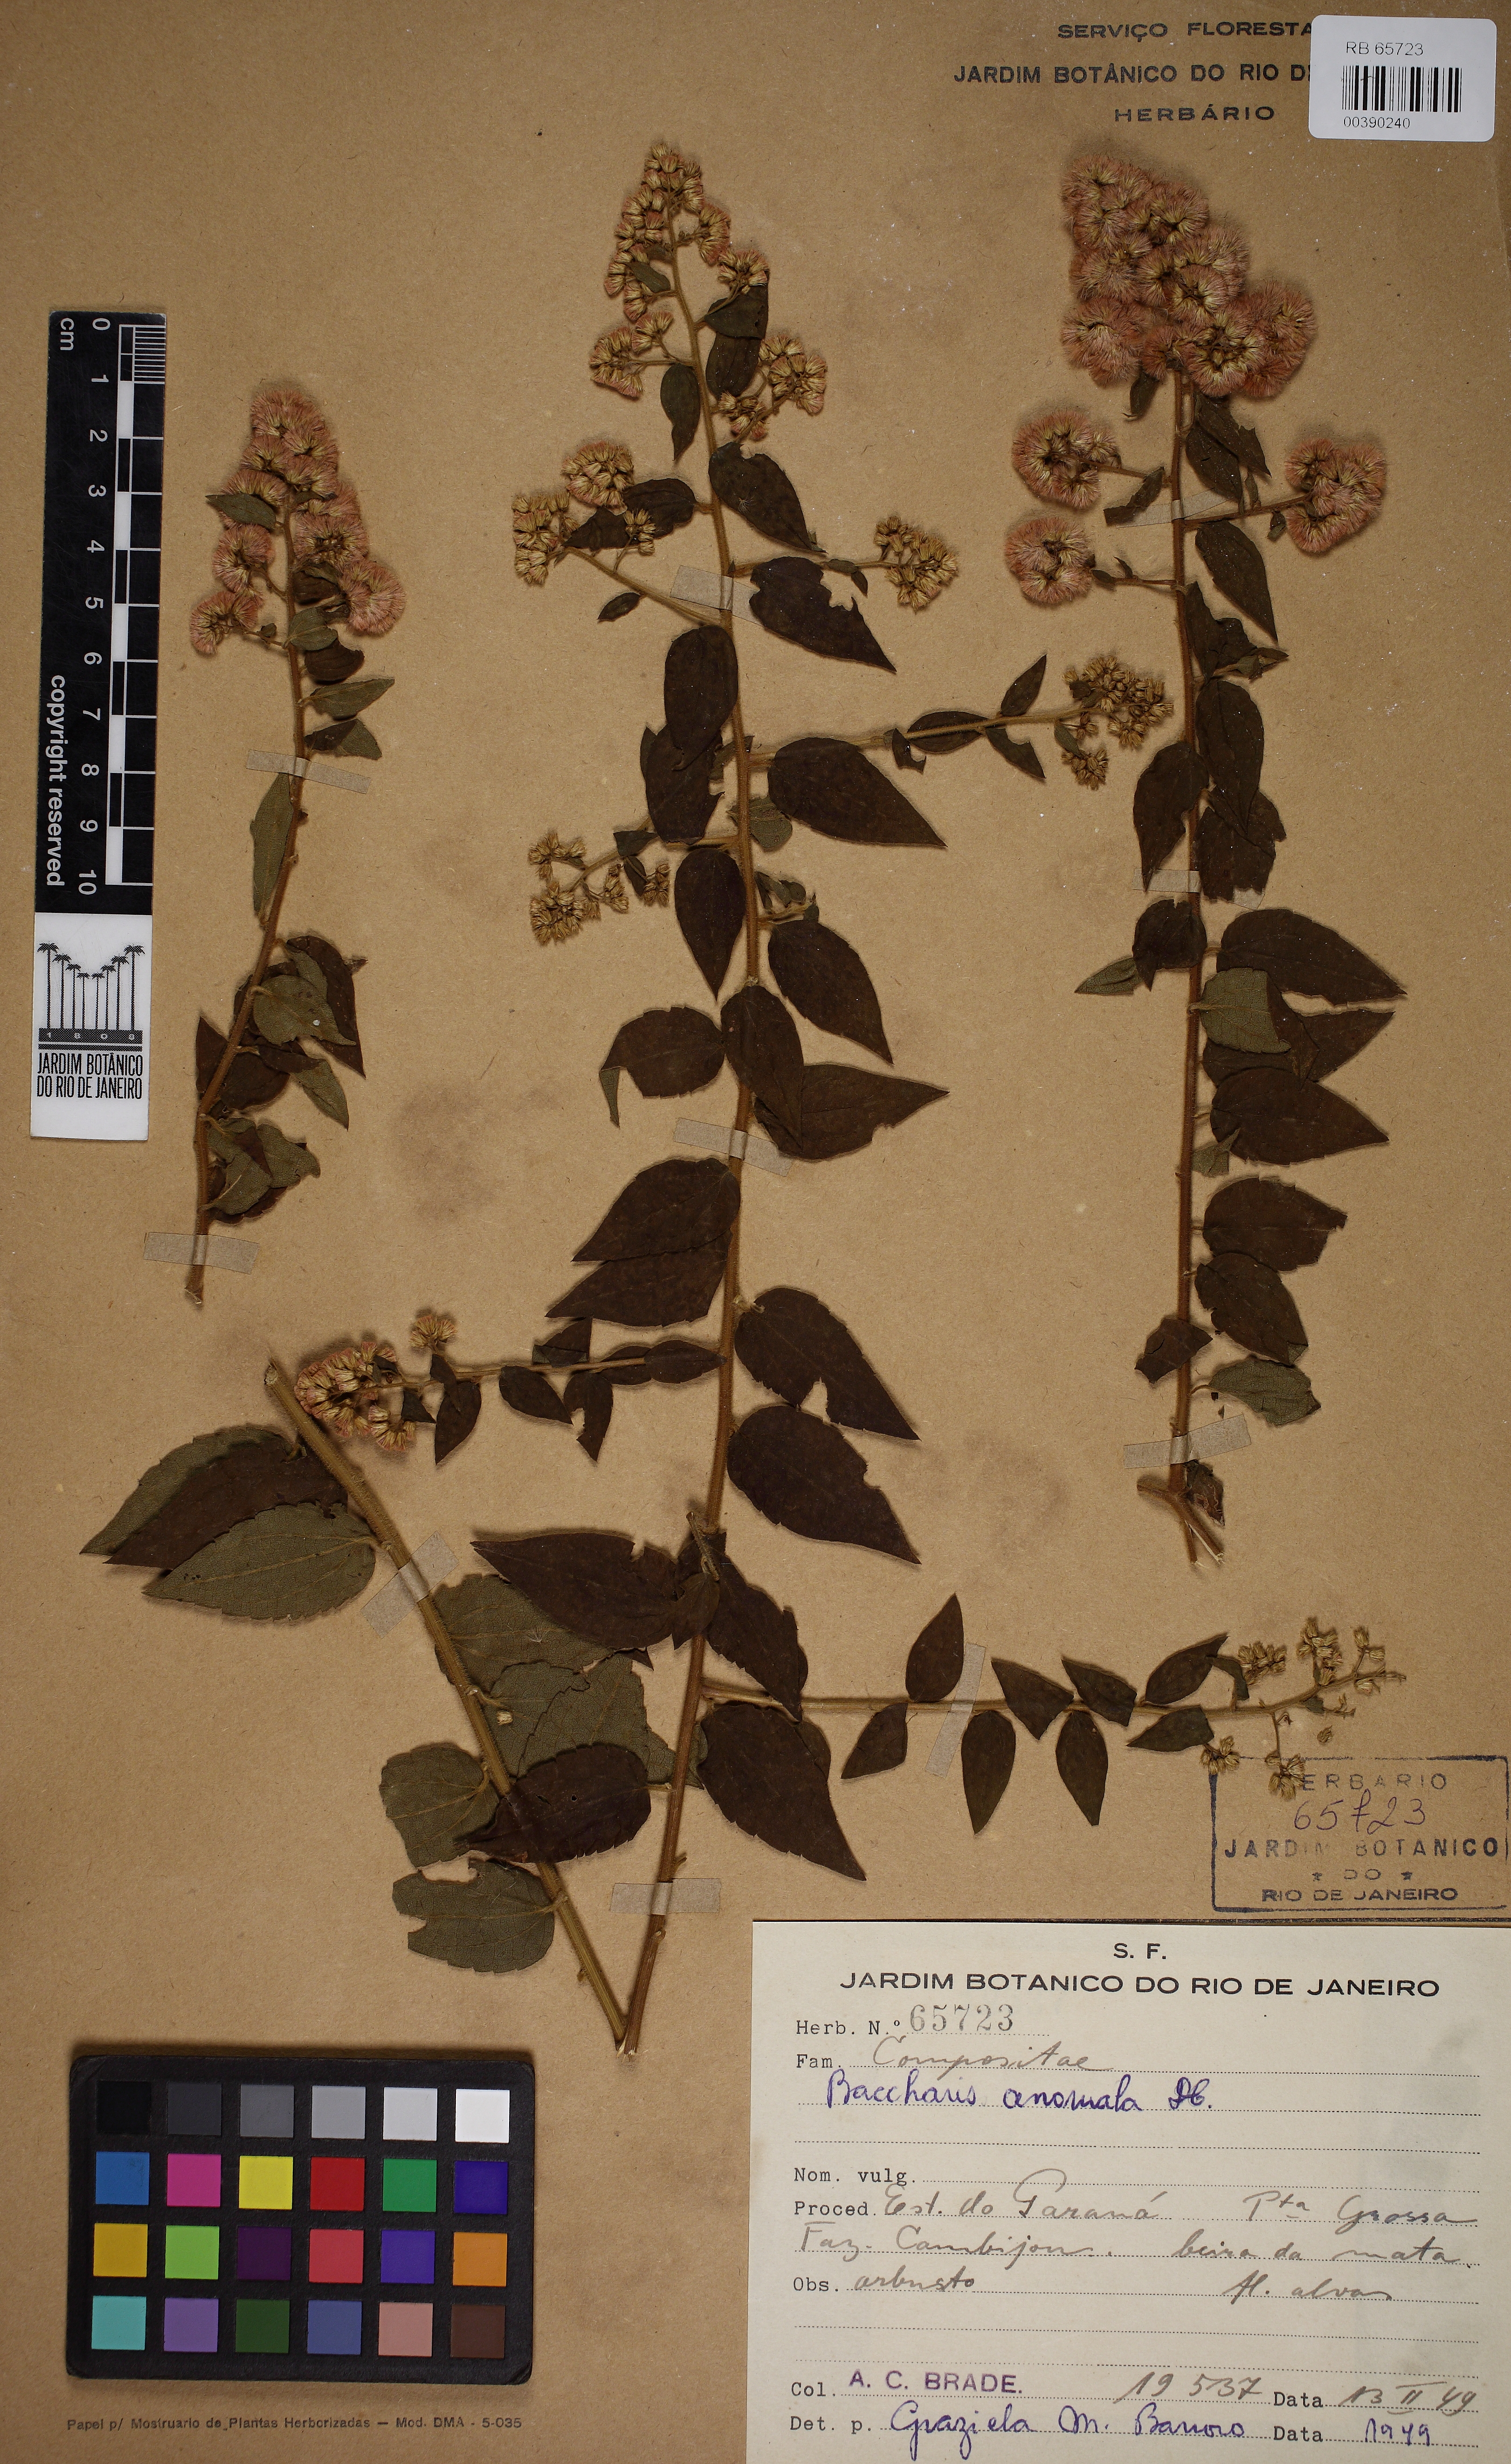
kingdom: Plantae
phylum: Tracheophyta
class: Magnoliopsida
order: Asterales
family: Asteraceae
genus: Baccharis
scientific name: Baccharis anomala
